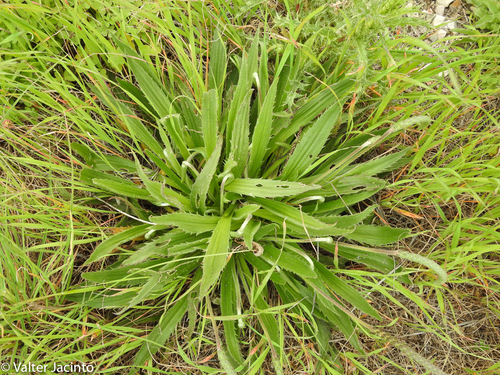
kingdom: Plantae
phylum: Tracheophyta
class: Magnoliopsida
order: Lamiales
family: Plantaginaceae
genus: Plantago
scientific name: Plantago serraria
